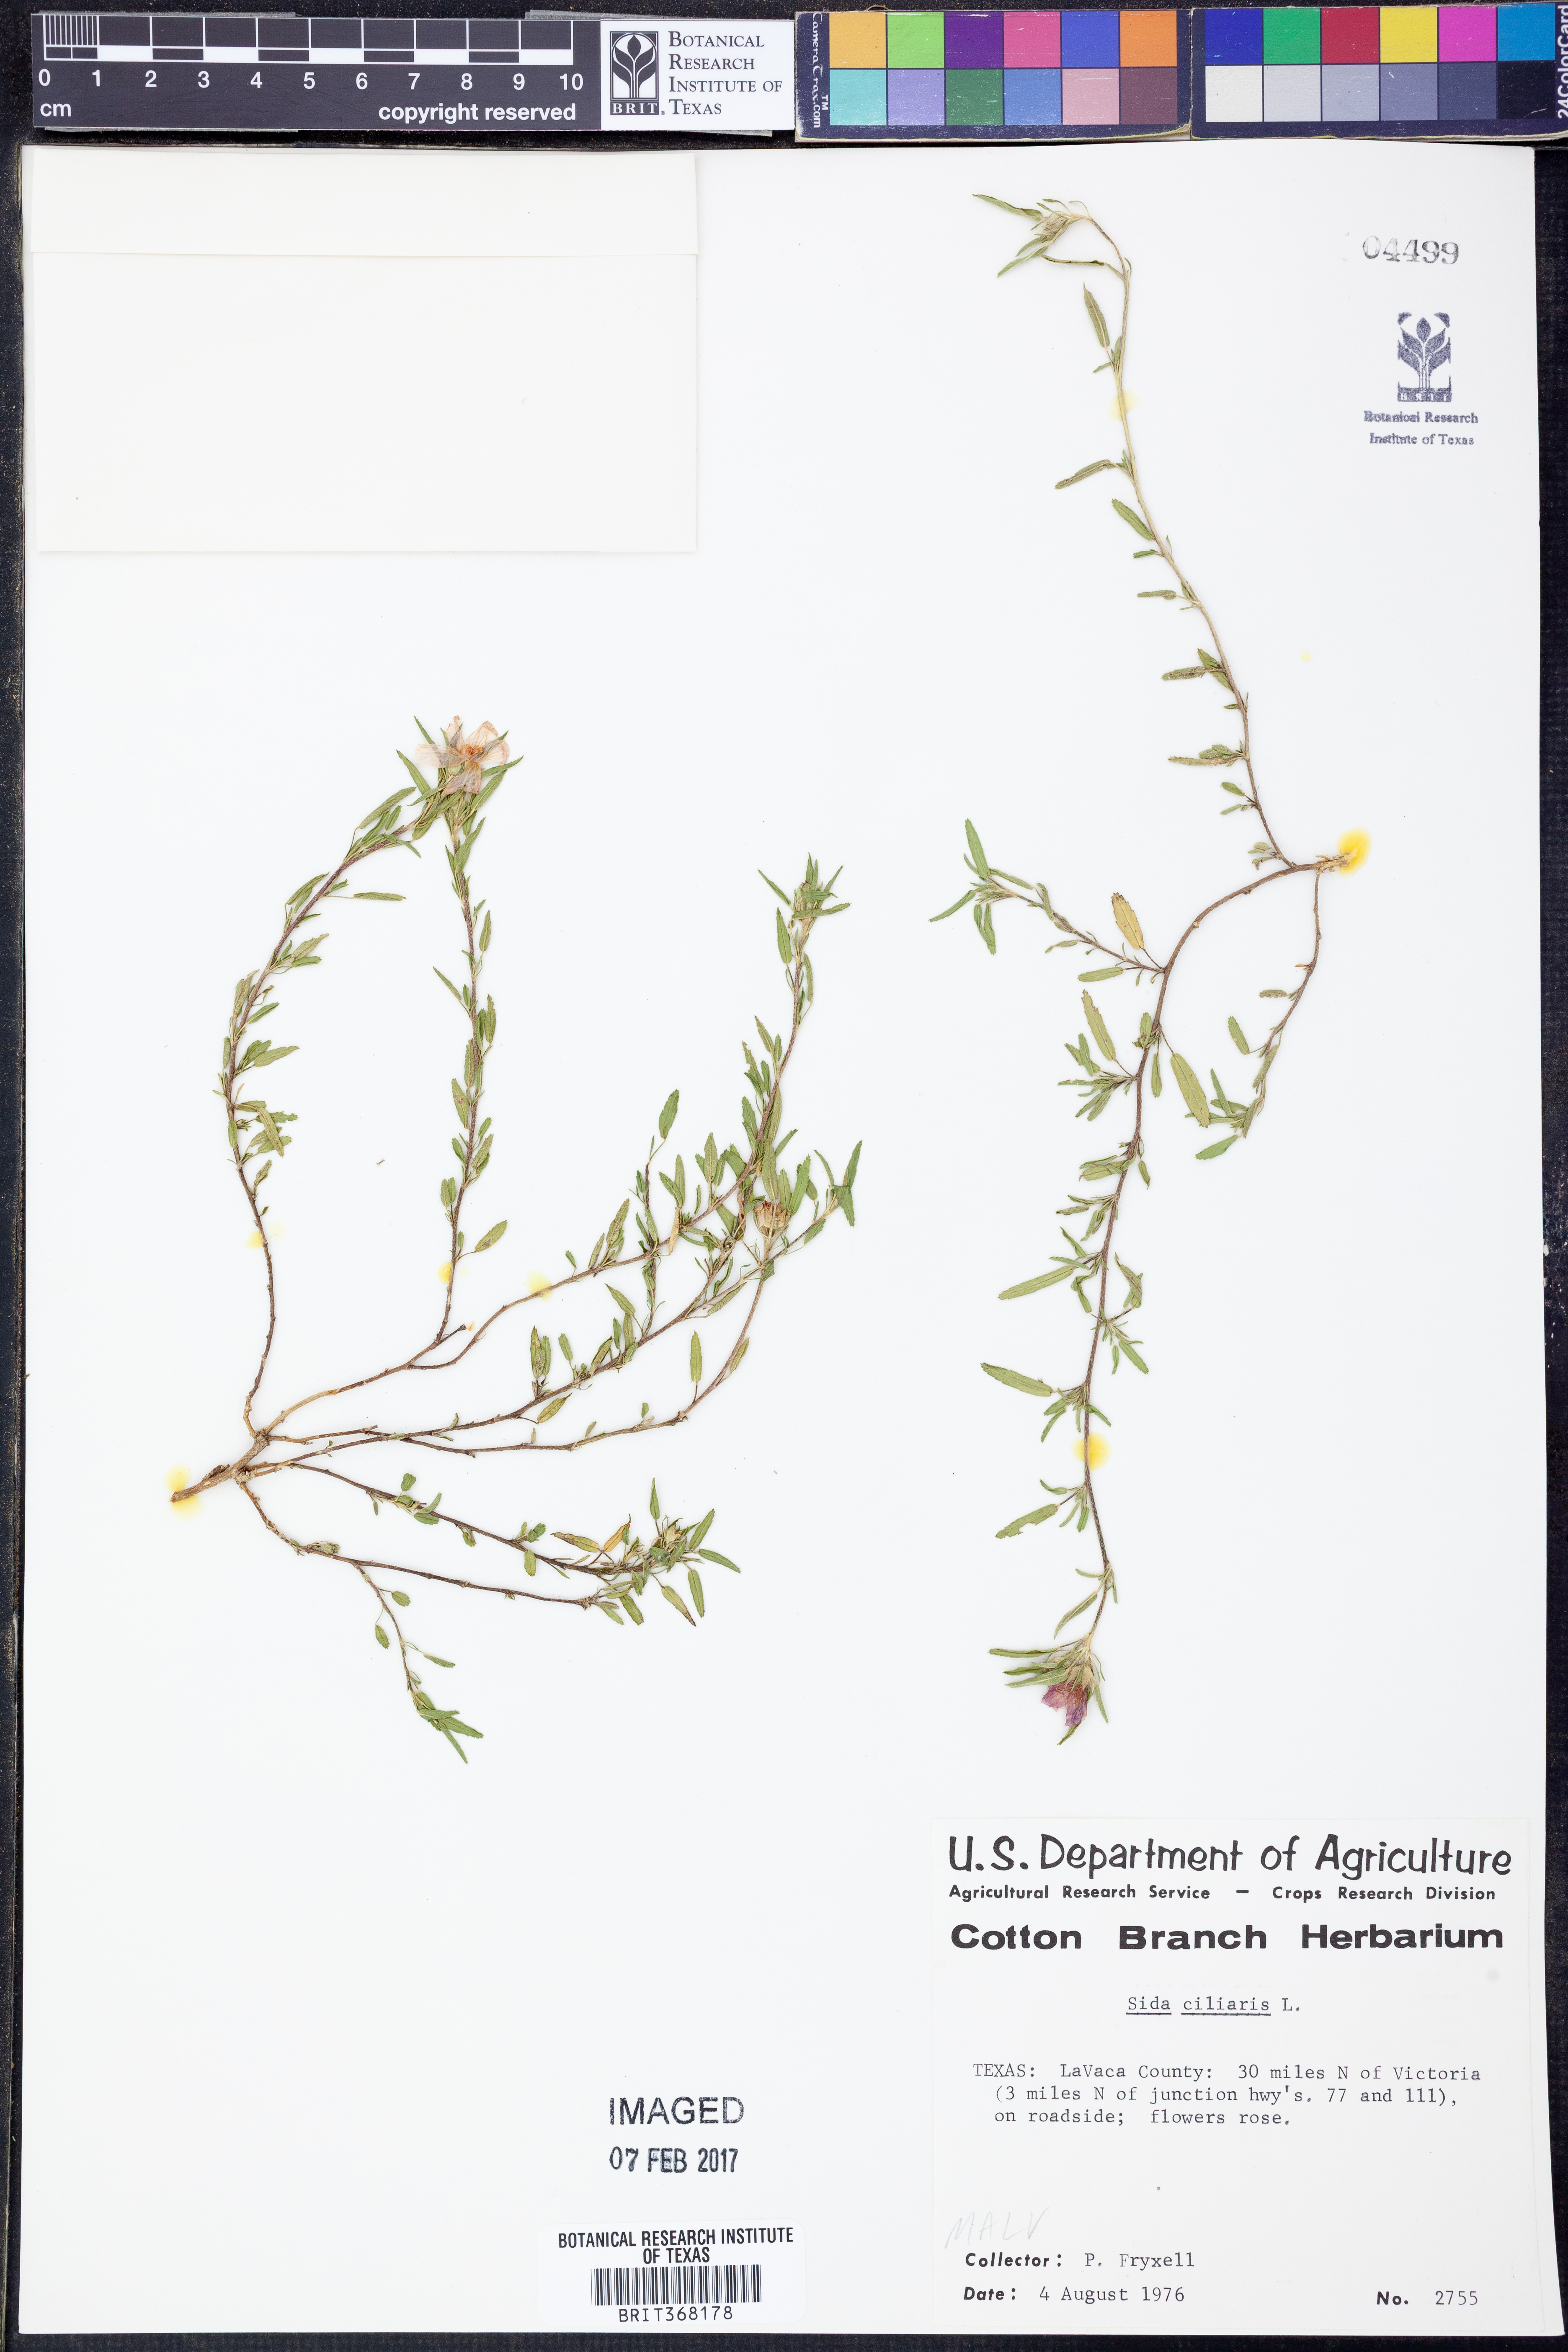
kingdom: Plantae
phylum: Tracheophyta
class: Magnoliopsida
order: Malvales
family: Malvaceae
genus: Sida
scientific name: Sida ciliaris
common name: Bracted fanpetals
